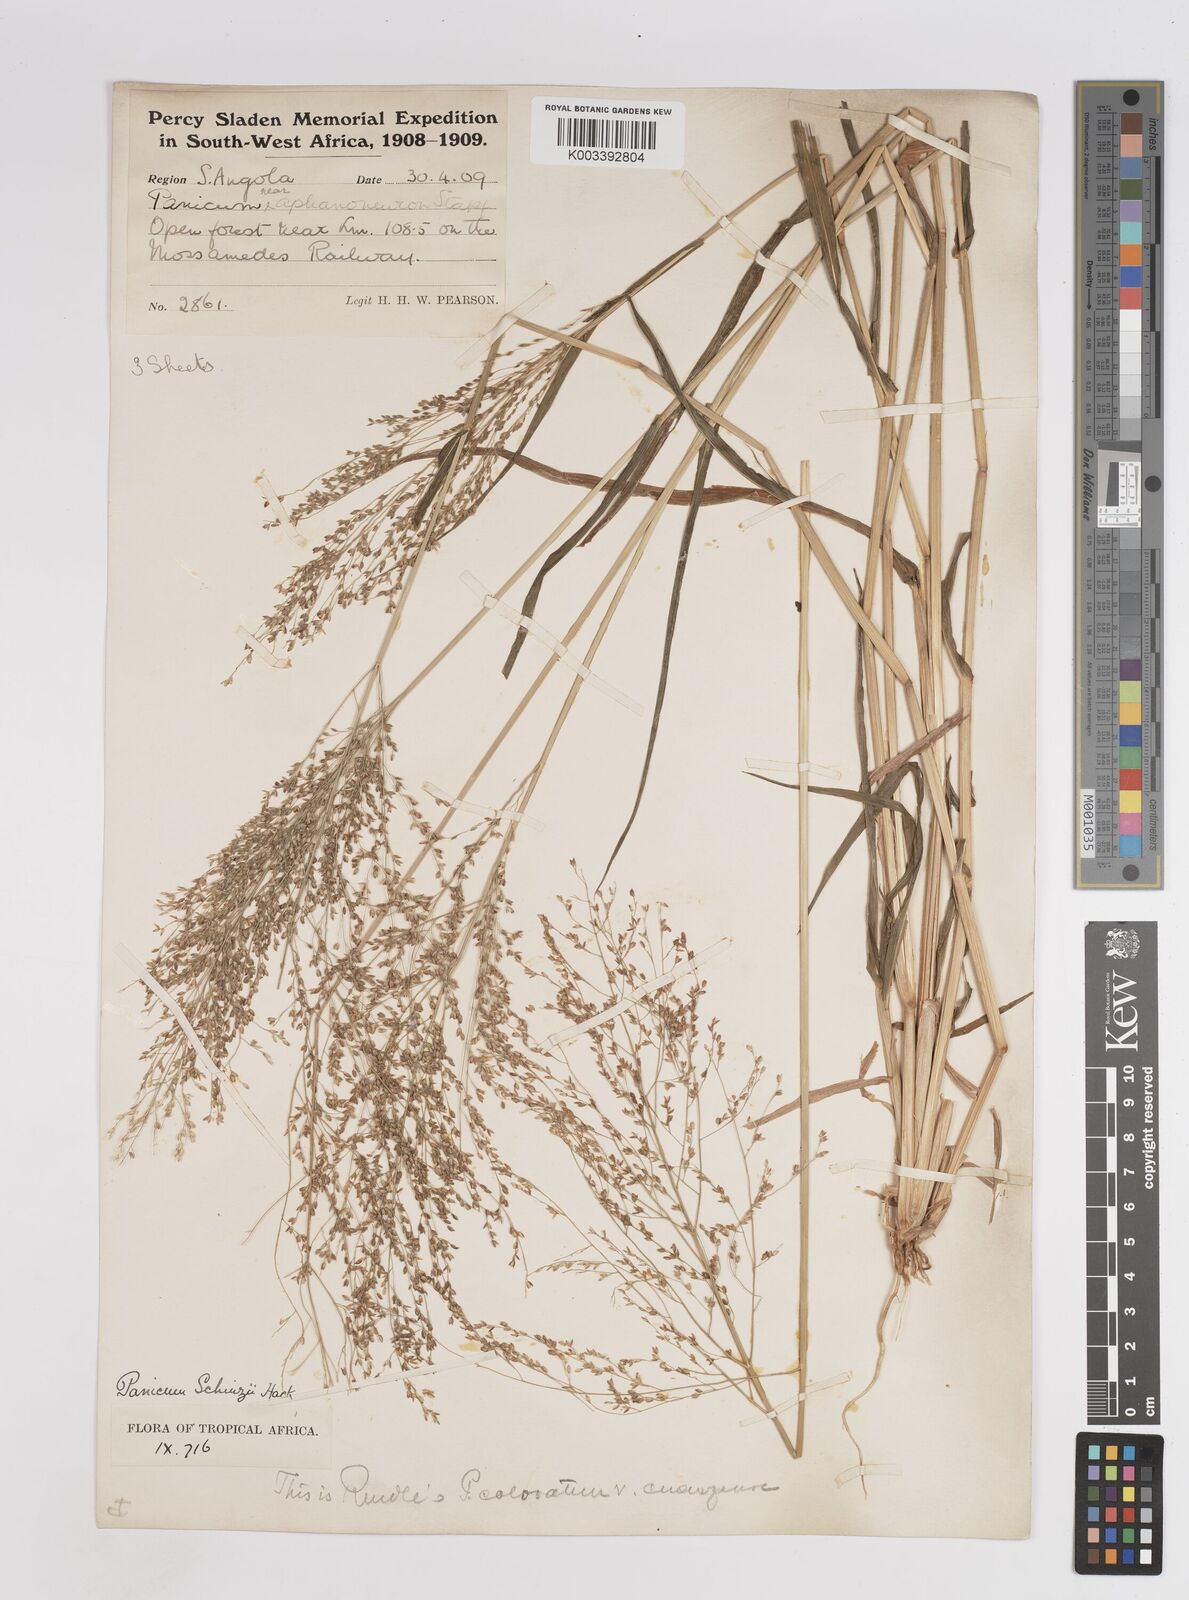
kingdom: Plantae
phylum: Tracheophyta
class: Liliopsida
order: Poales
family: Poaceae
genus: Panicum
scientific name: Panicum schinzii
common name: Sweet grass
